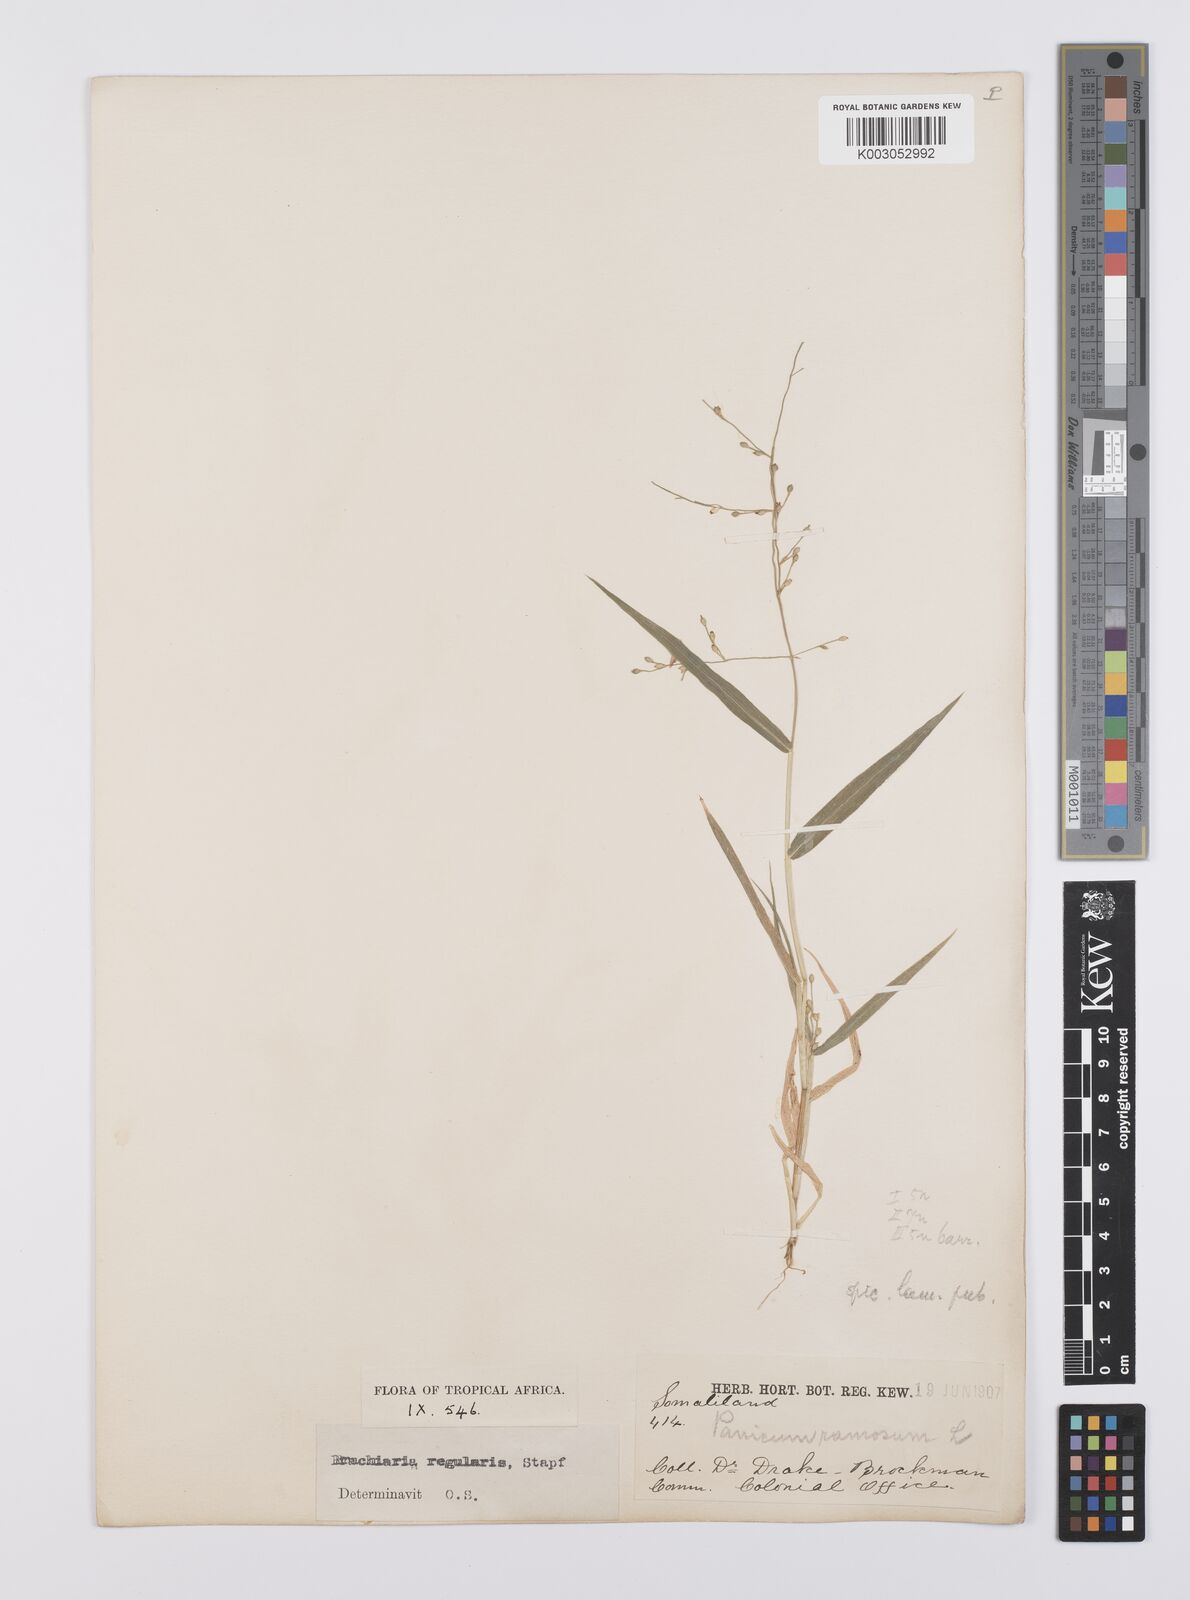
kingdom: Plantae
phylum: Tracheophyta
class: Liliopsida
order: Poales
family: Poaceae
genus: Urochloa
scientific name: Urochloa deflexa
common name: Guinea millet
